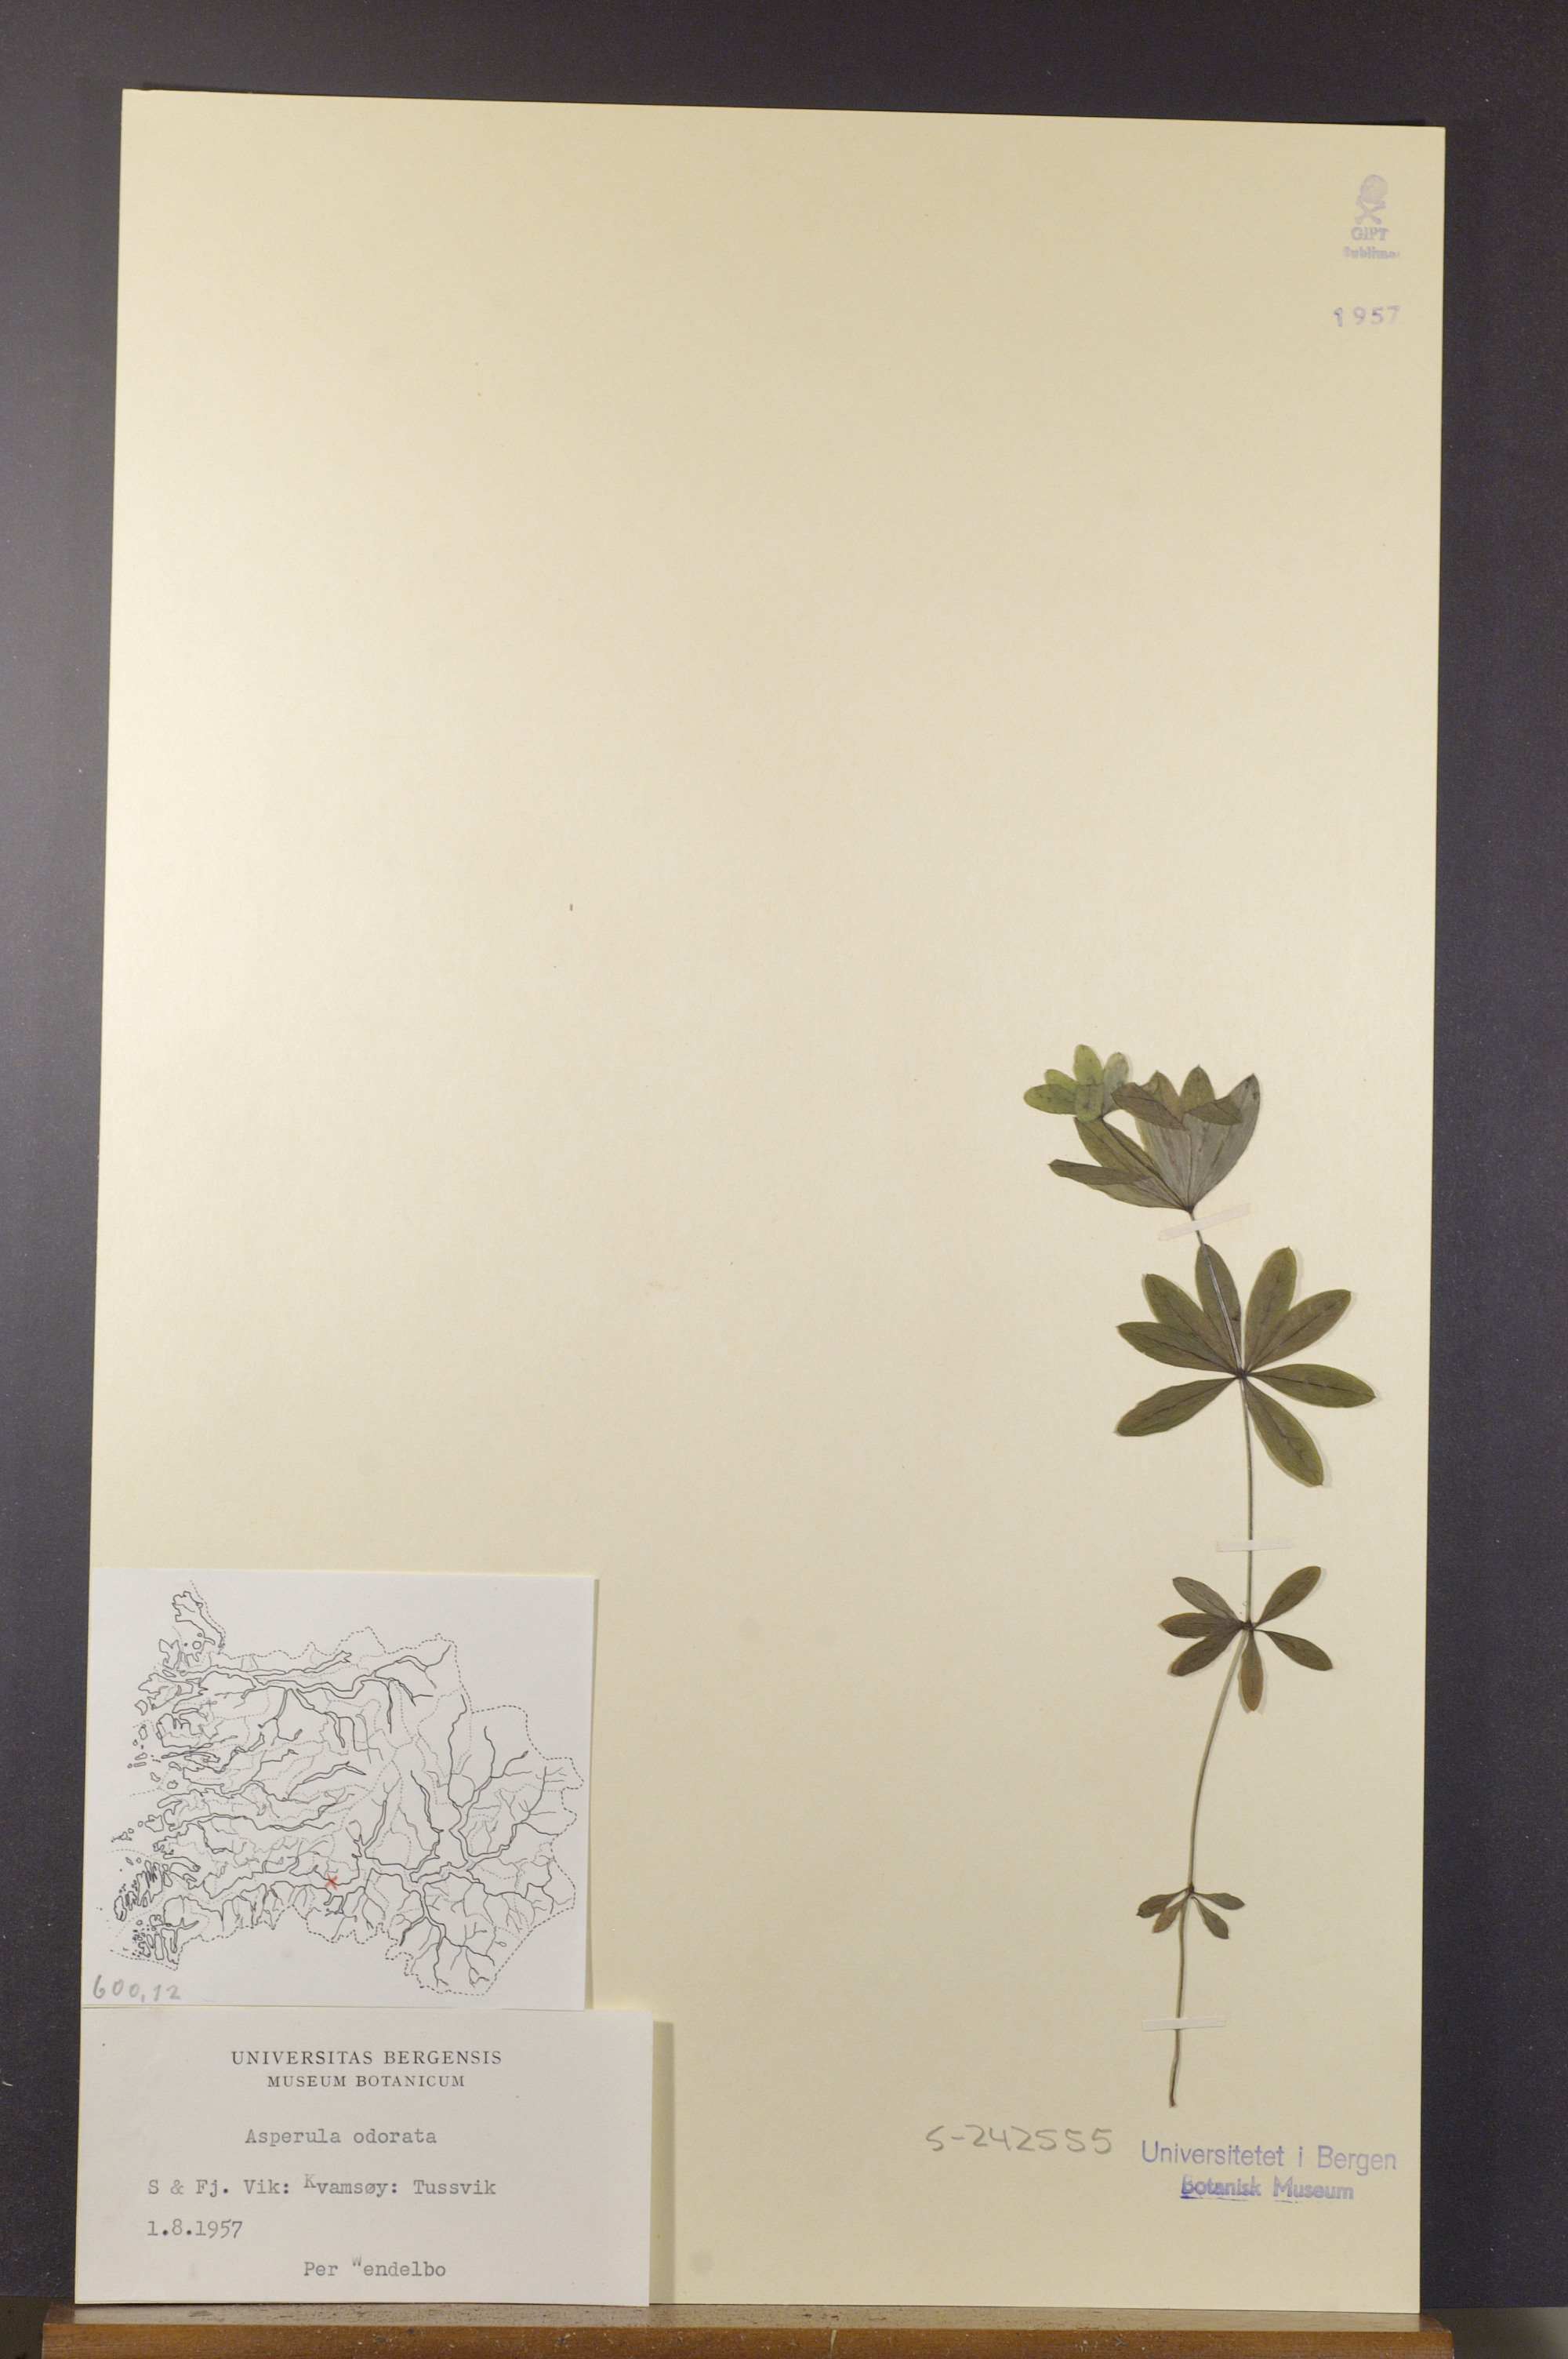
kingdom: Plantae
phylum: Tracheophyta
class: Magnoliopsida
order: Gentianales
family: Rubiaceae
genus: Galium
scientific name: Galium odoratum
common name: Sweet woodruff
